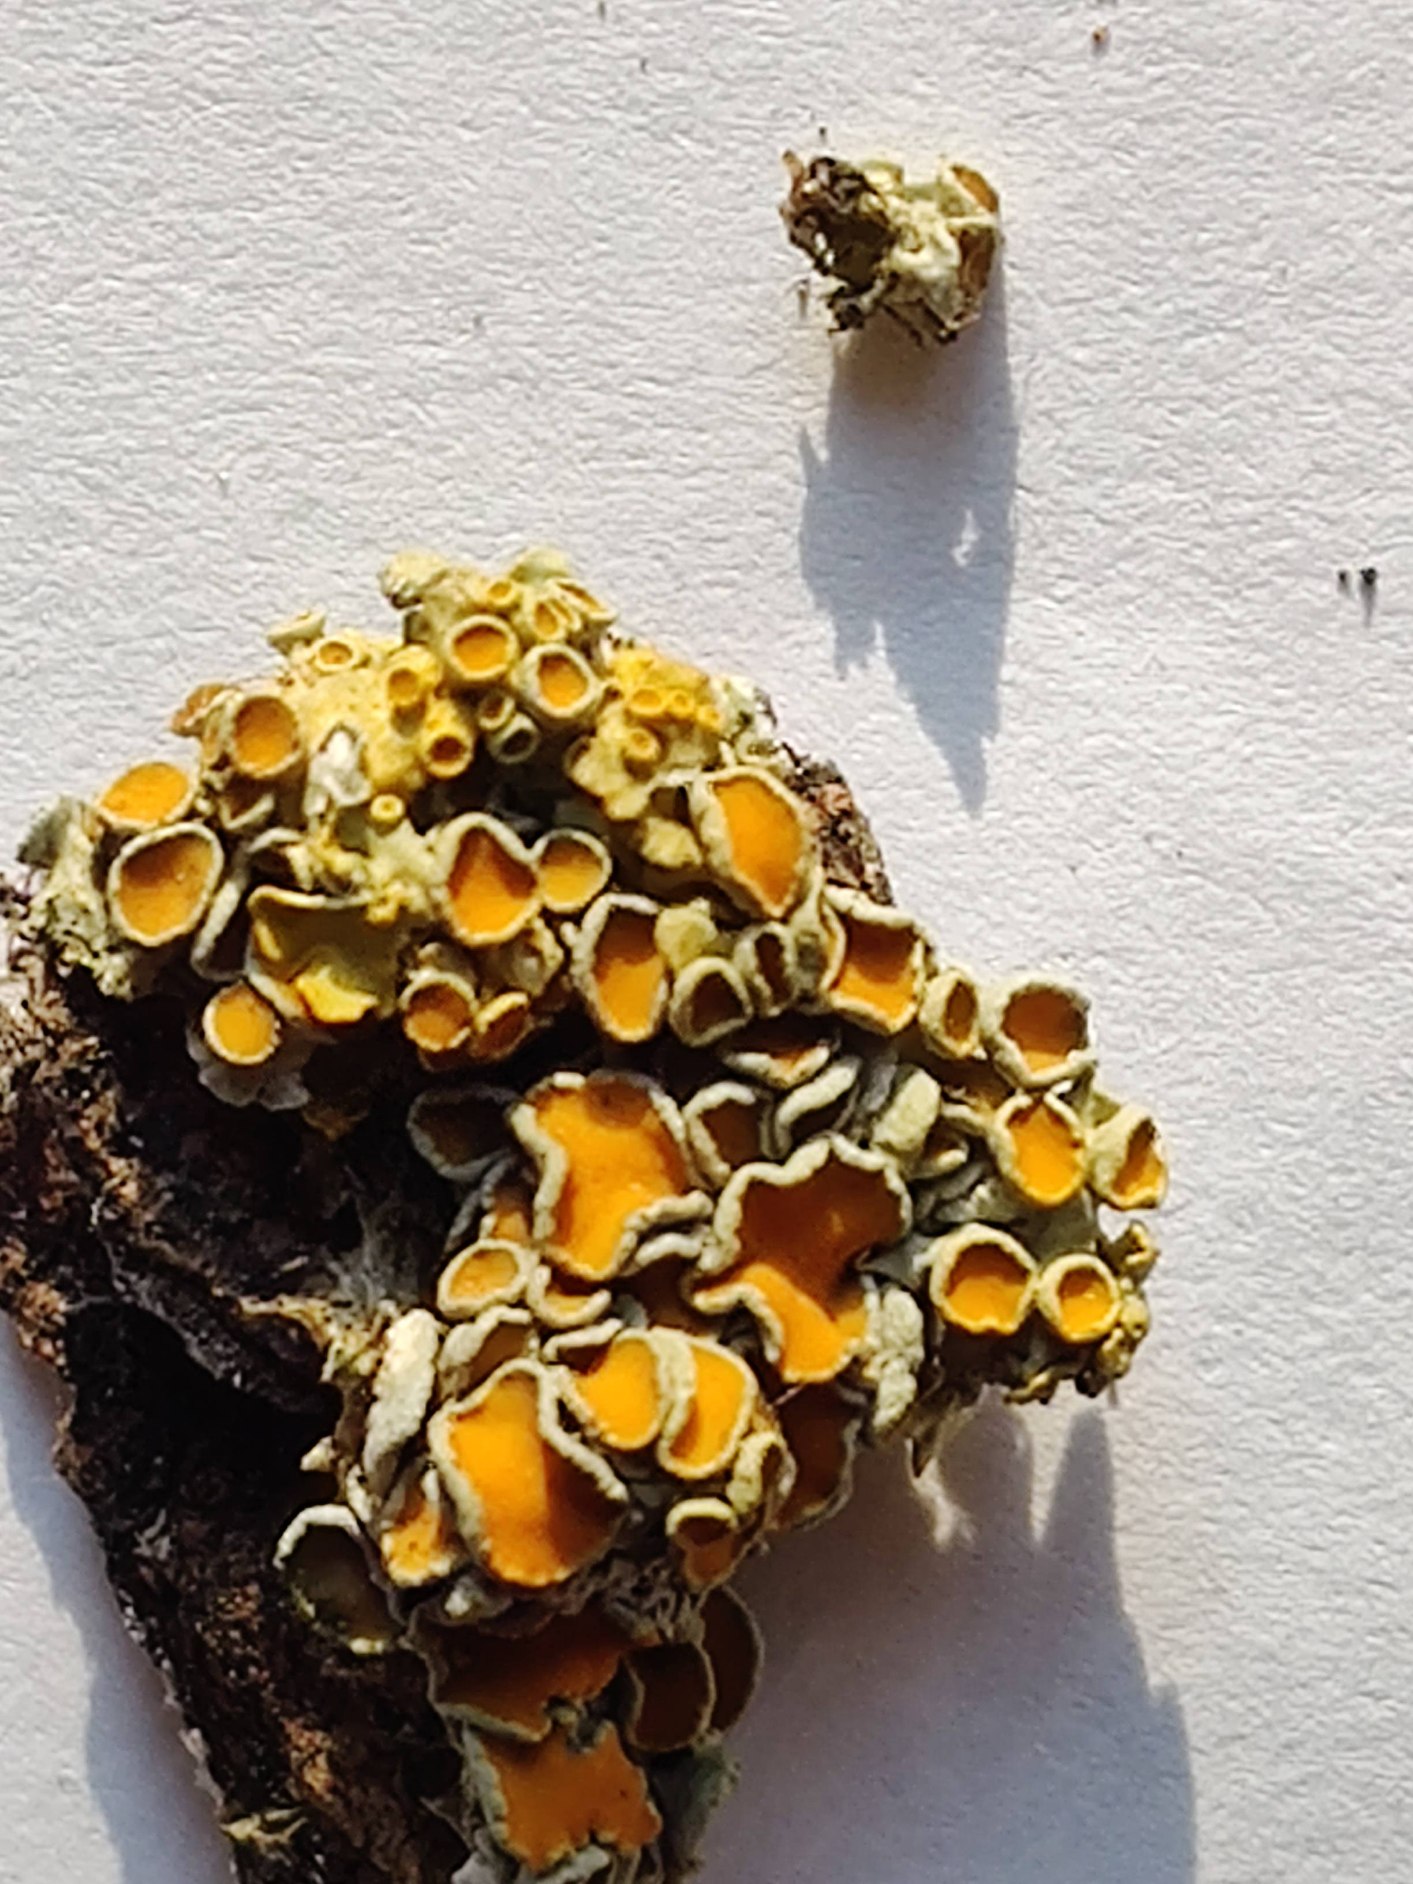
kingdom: Fungi
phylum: Ascomycota
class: Lecanoromycetes
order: Teloschistales
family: Teloschistaceae
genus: Xanthoria
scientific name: Xanthoria parietina
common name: Almindelig væggelav
